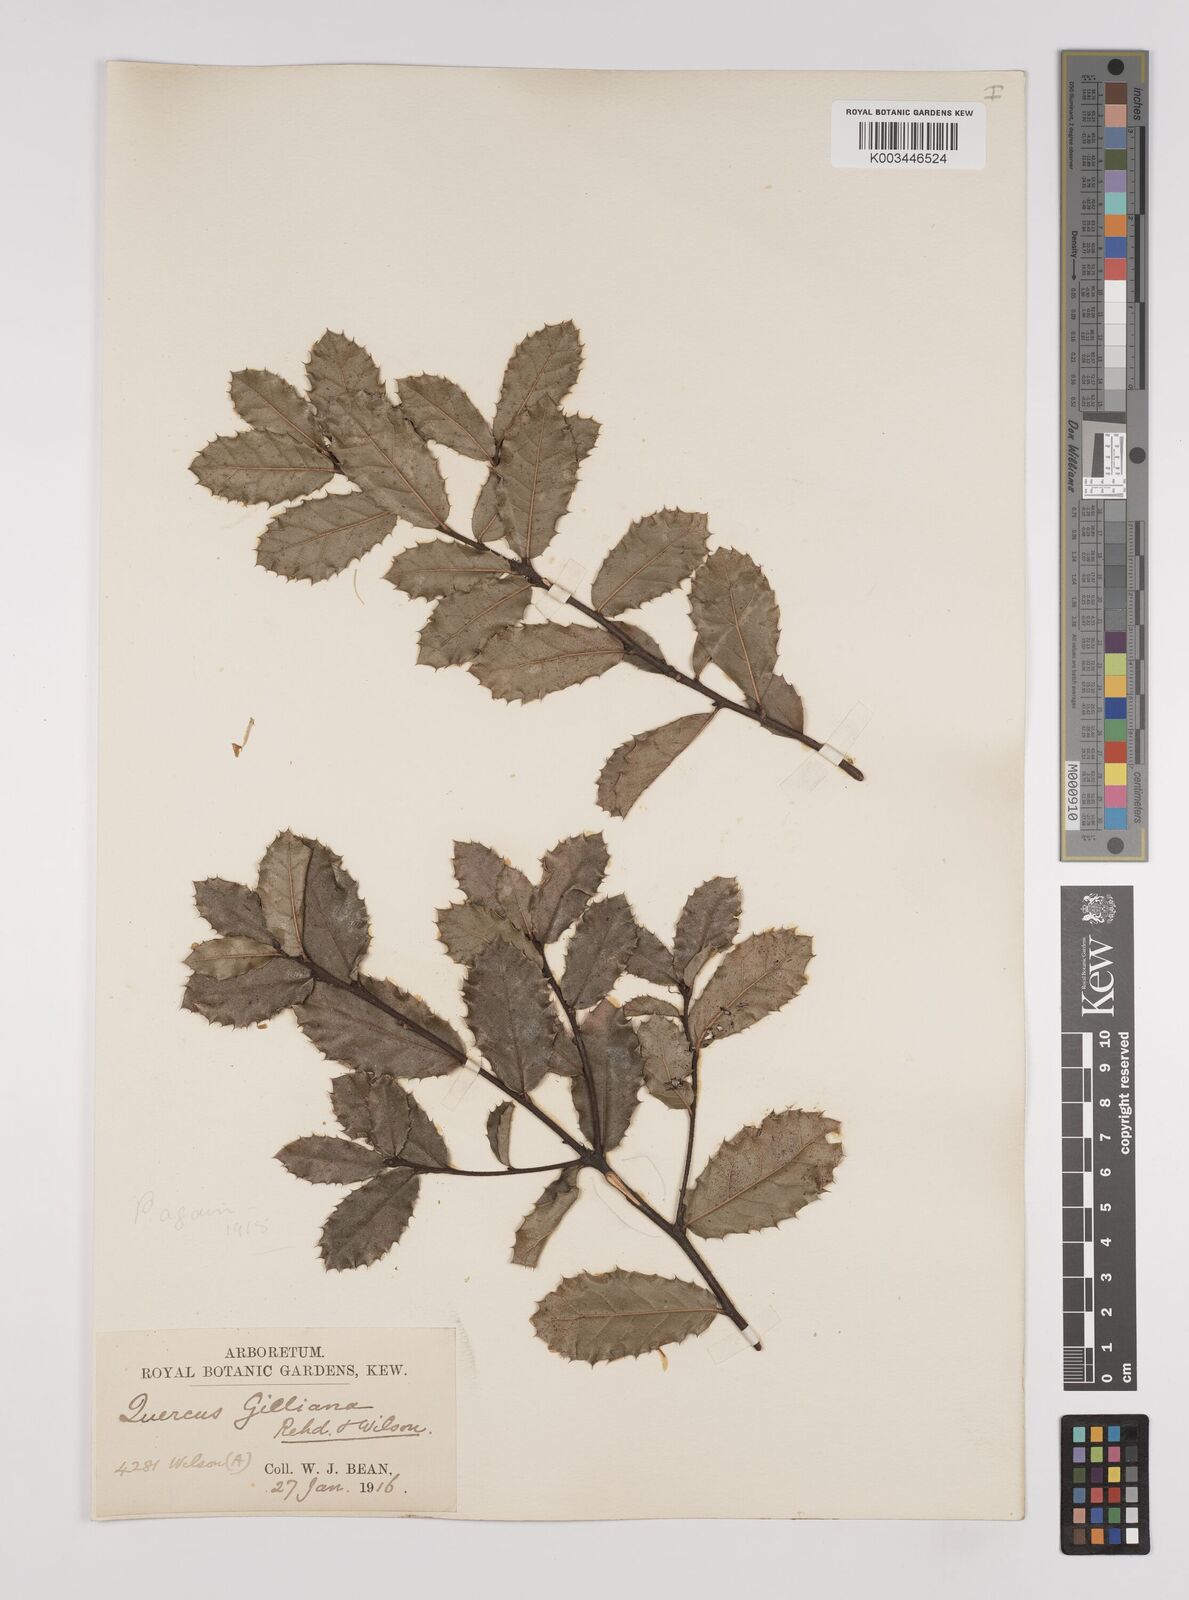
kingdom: Plantae
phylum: Tracheophyta
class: Magnoliopsida
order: Fagales
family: Fagaceae
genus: Quercus
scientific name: Quercus gilliana
